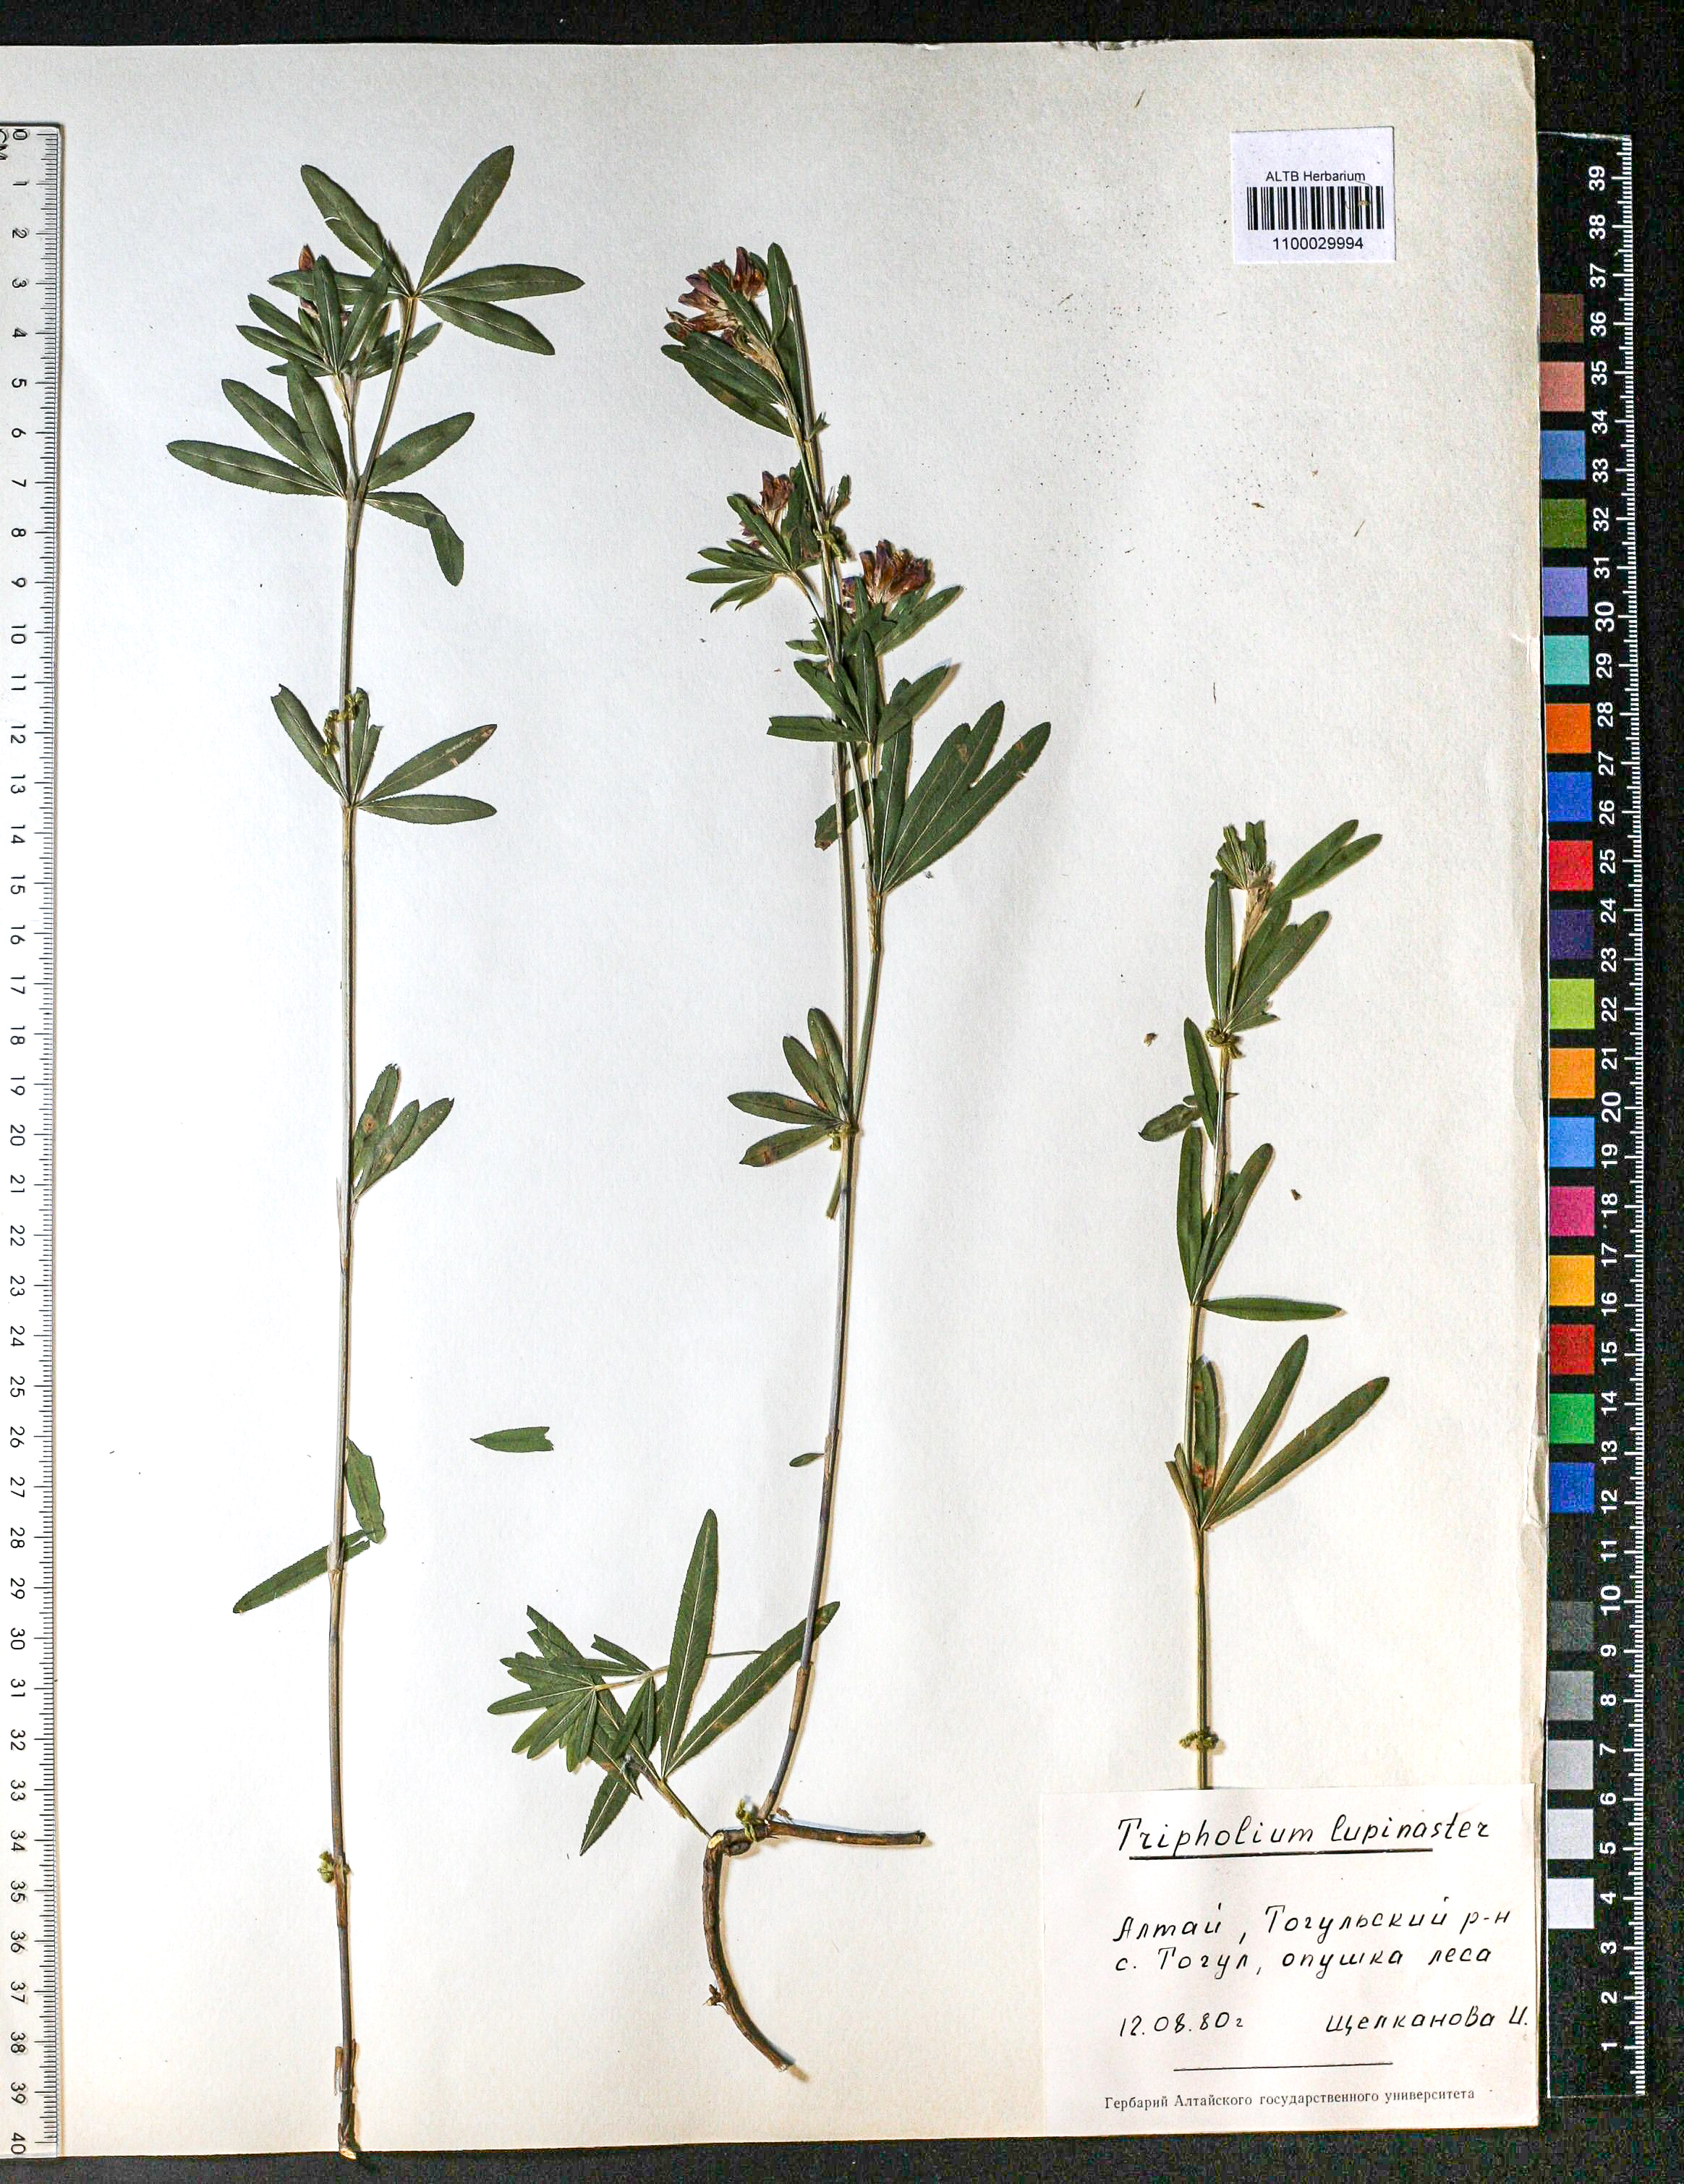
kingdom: Plantae
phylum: Tracheophyta
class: Magnoliopsida
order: Fabales
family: Fabaceae
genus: Trifolium
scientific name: Trifolium lupinaster
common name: Lupine clover
